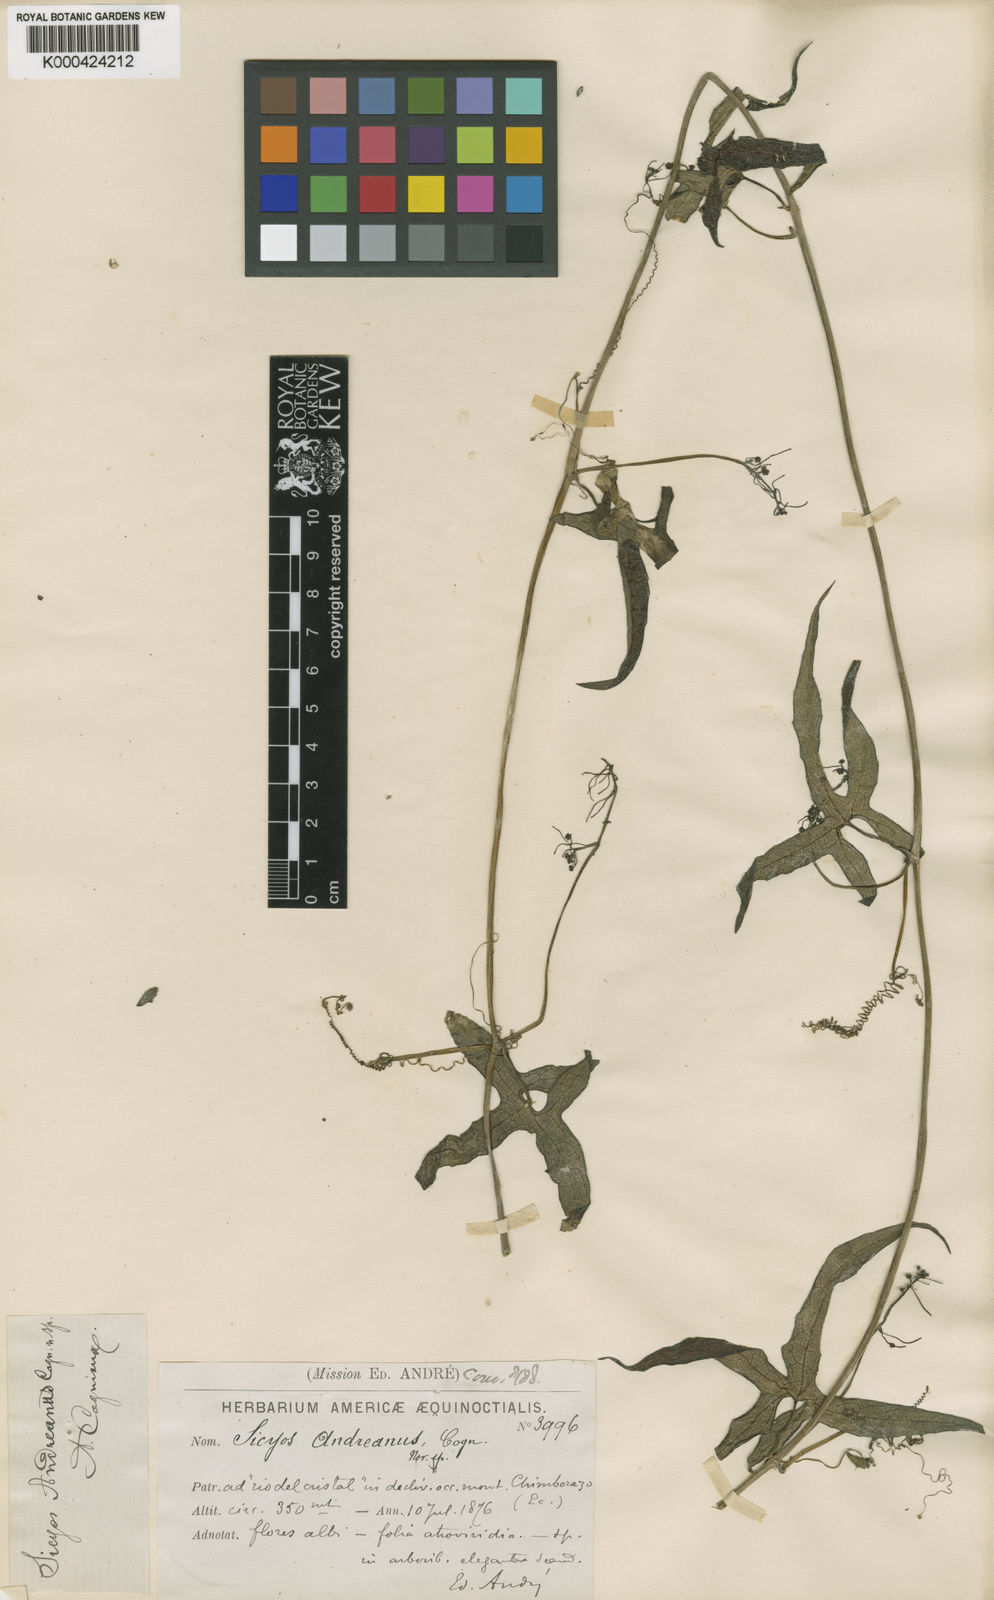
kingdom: Plantae
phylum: Tracheophyta
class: Magnoliopsida
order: Cucurbitales
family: Cucurbitaceae
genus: Sicyos
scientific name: Sicyos andreanus
